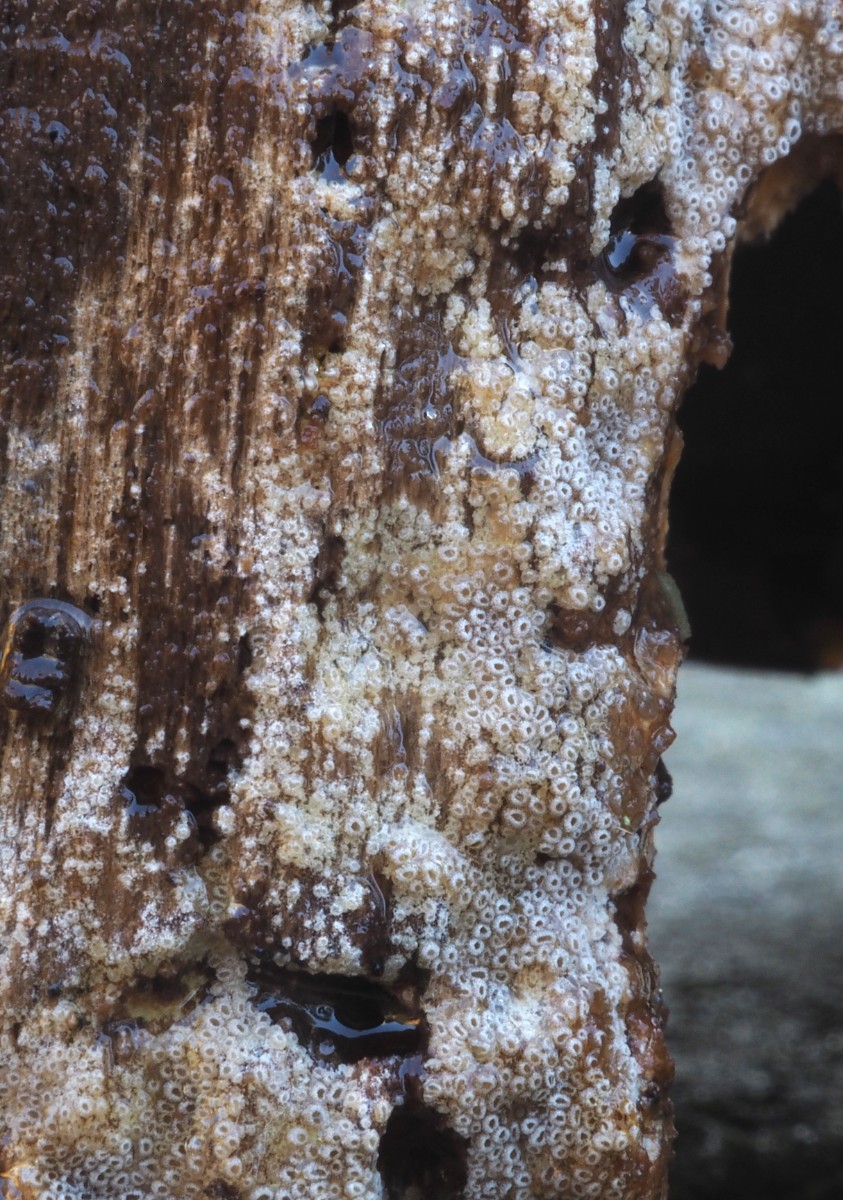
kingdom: Fungi
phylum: Basidiomycota
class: Agaricomycetes
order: Agaricales
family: Pleurotaceae
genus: Resupinatus
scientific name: Resupinatus poriaeformis
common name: tæpperør
